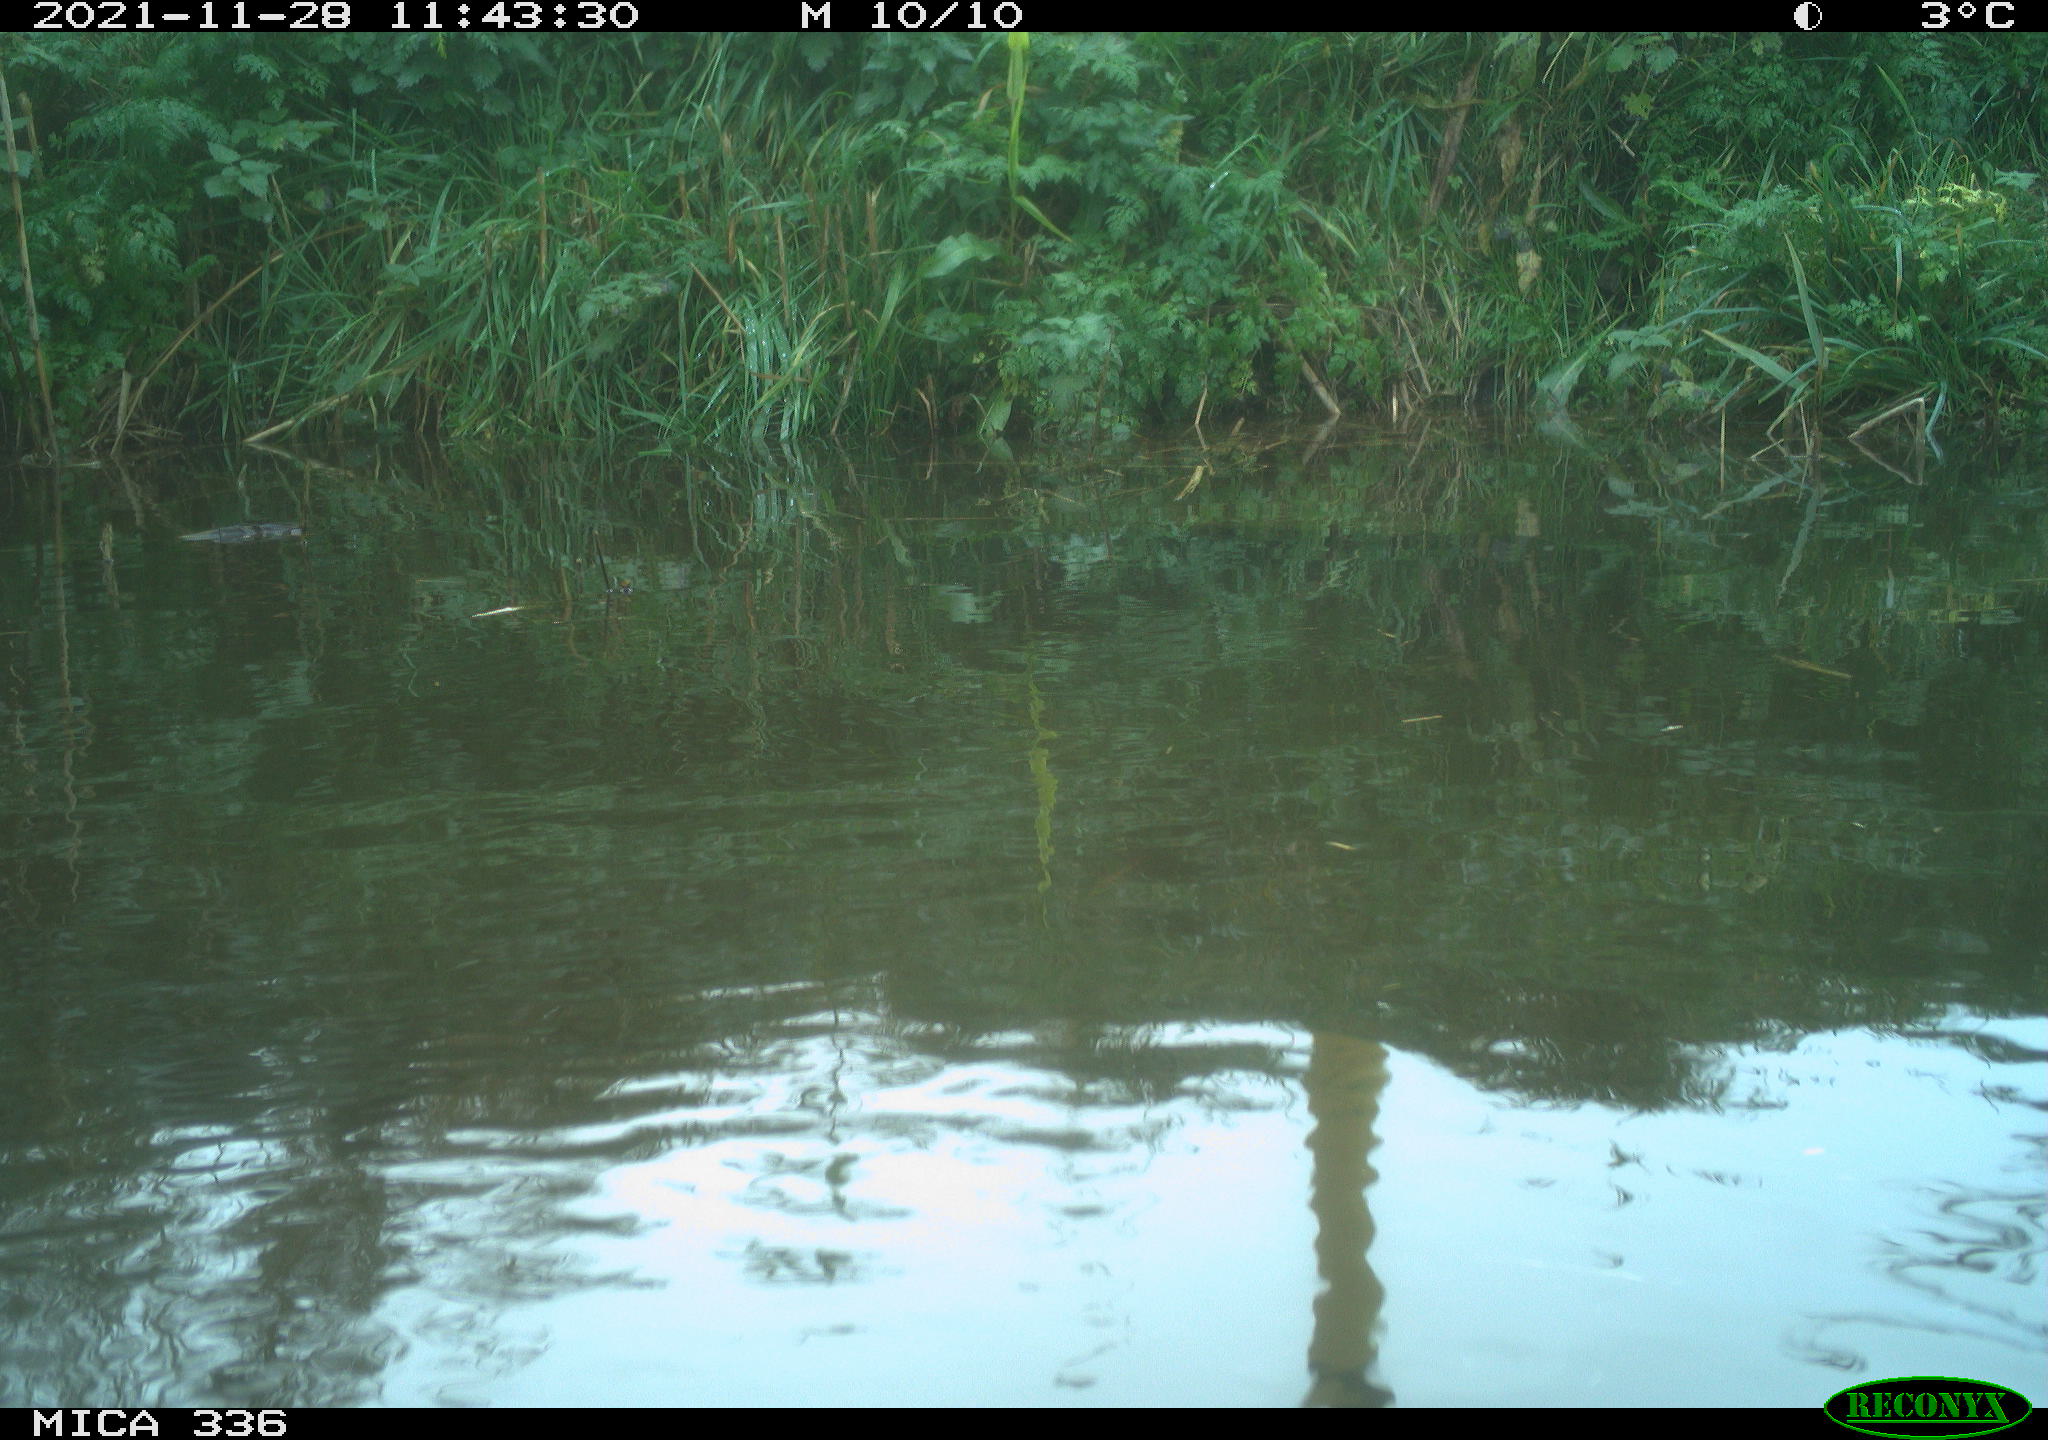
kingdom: Animalia
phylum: Chordata
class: Aves
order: Gruiformes
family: Rallidae
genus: Gallinula
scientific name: Gallinula chloropus
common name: Common moorhen
